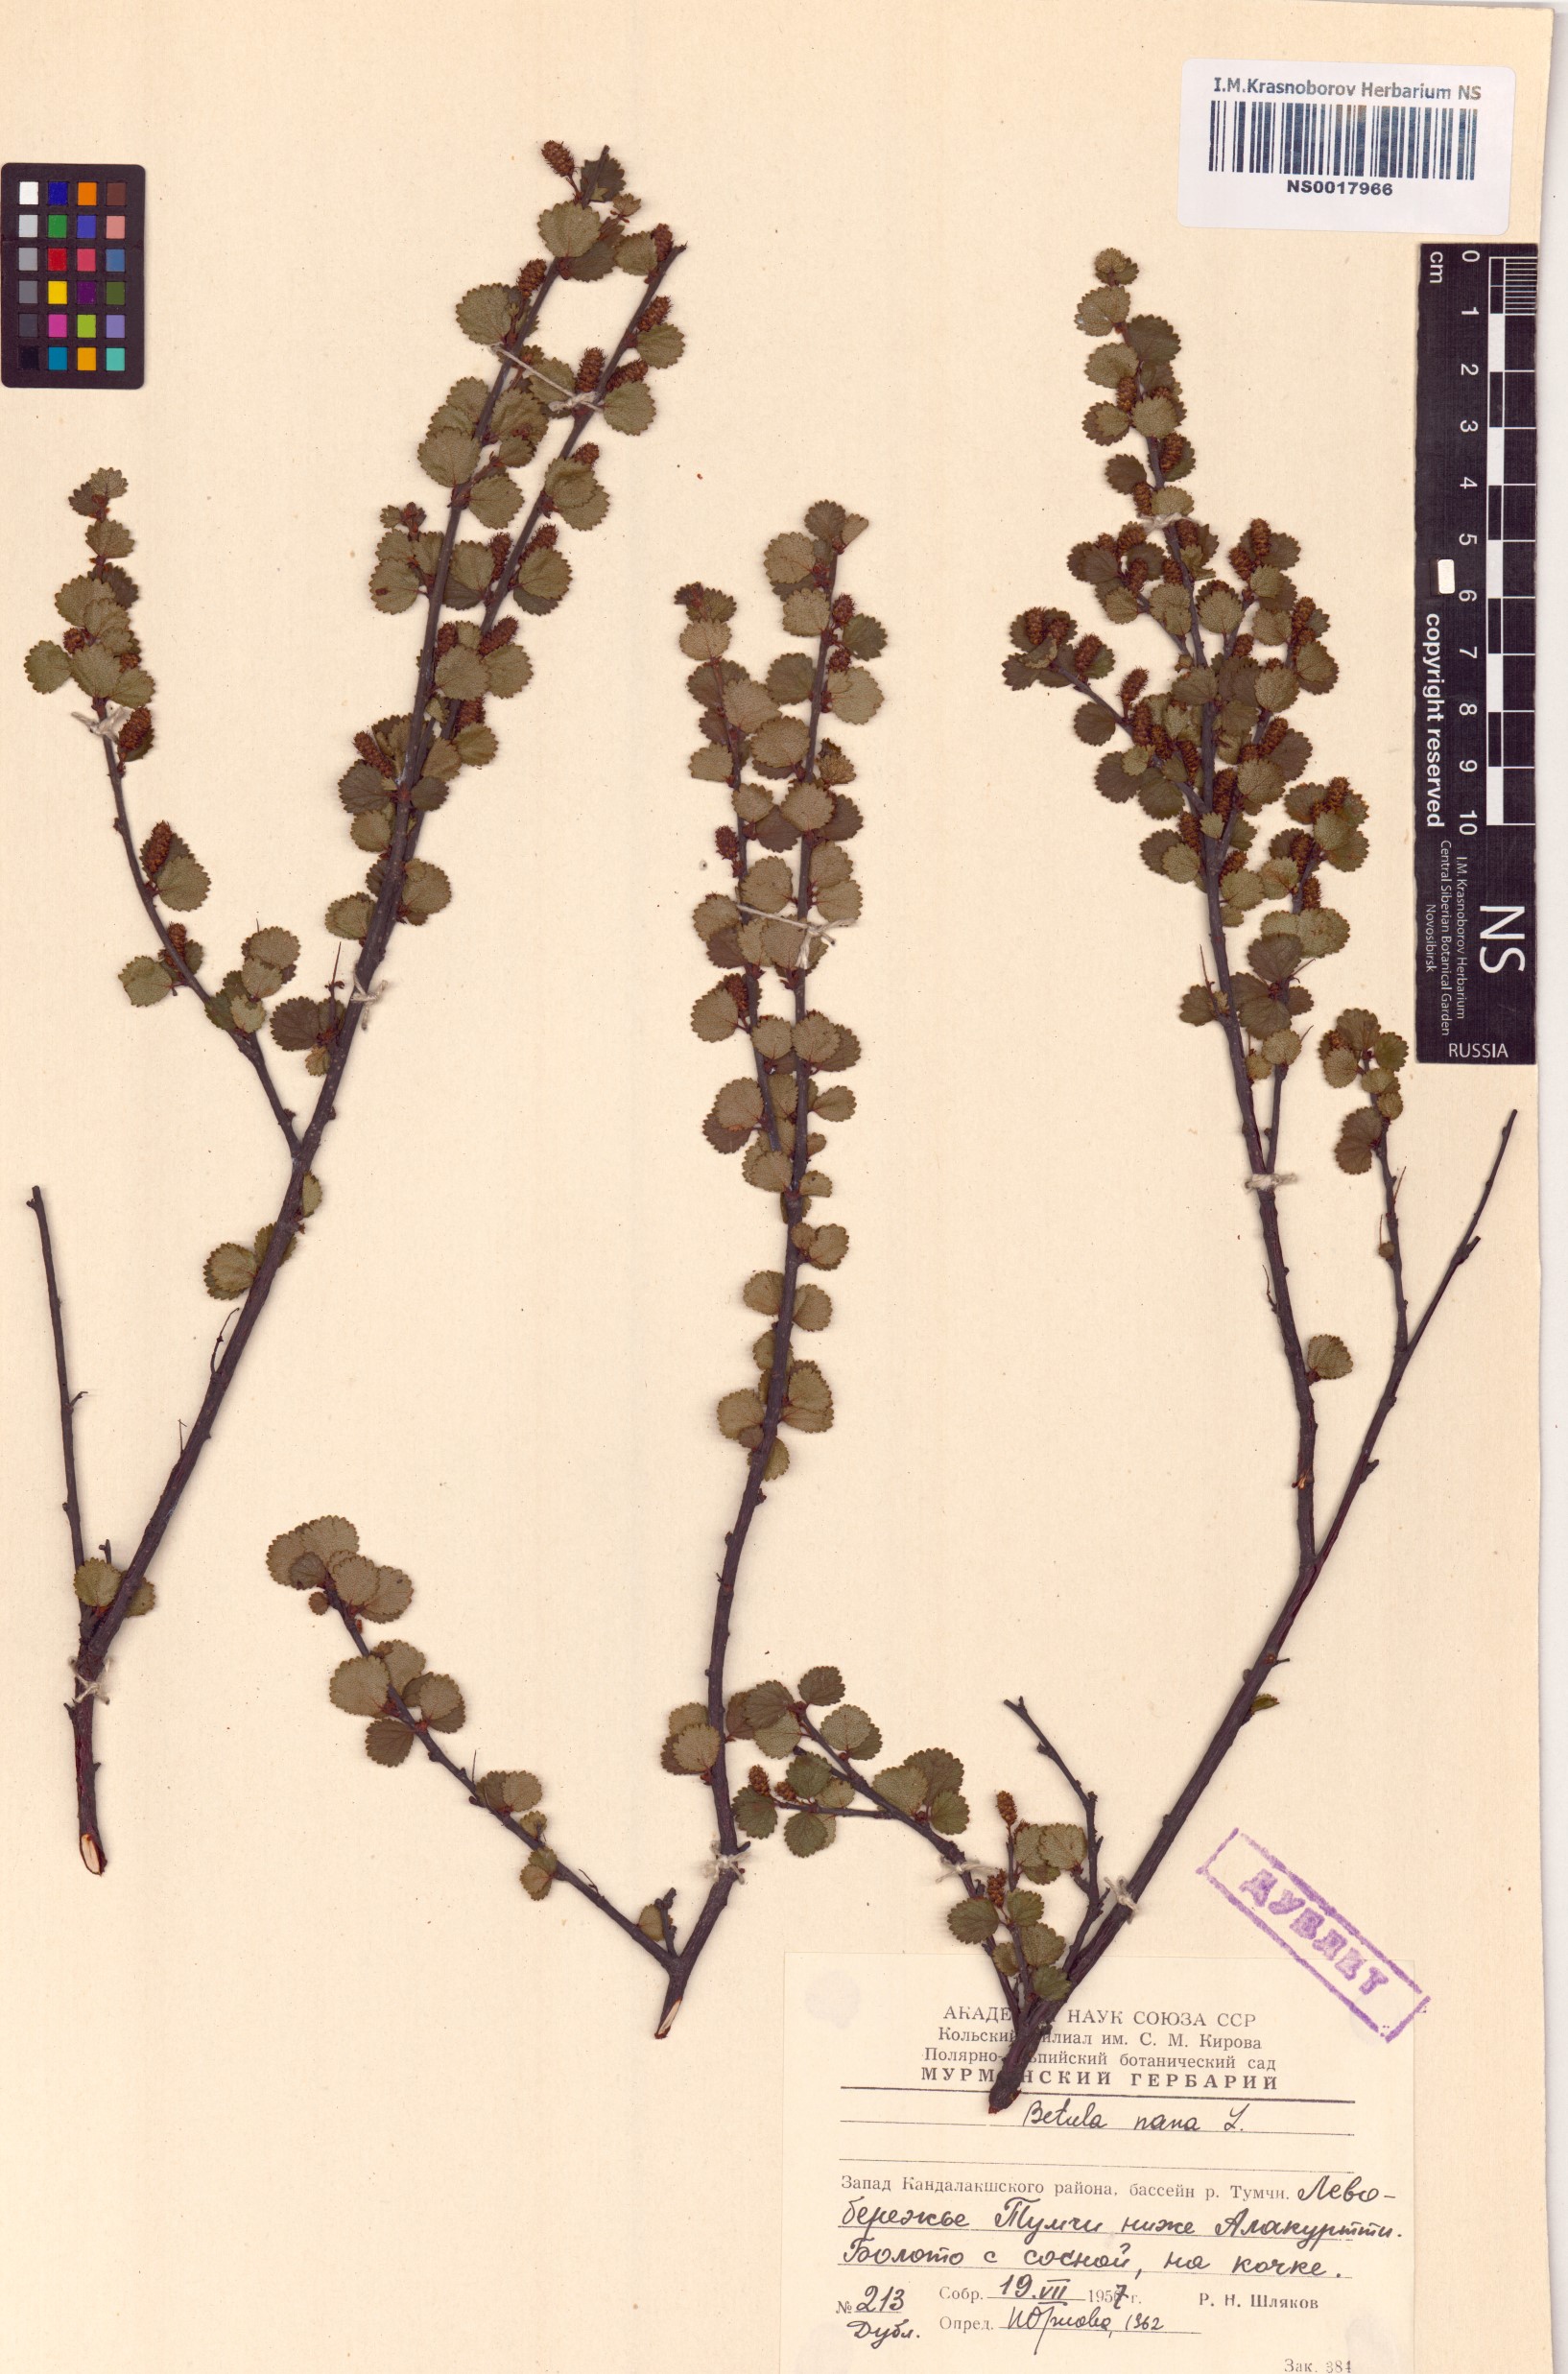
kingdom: Plantae
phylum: Tracheophyta
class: Magnoliopsida
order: Fagales
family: Betulaceae
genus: Betula
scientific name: Betula nana
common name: Arctic dwarf birch
